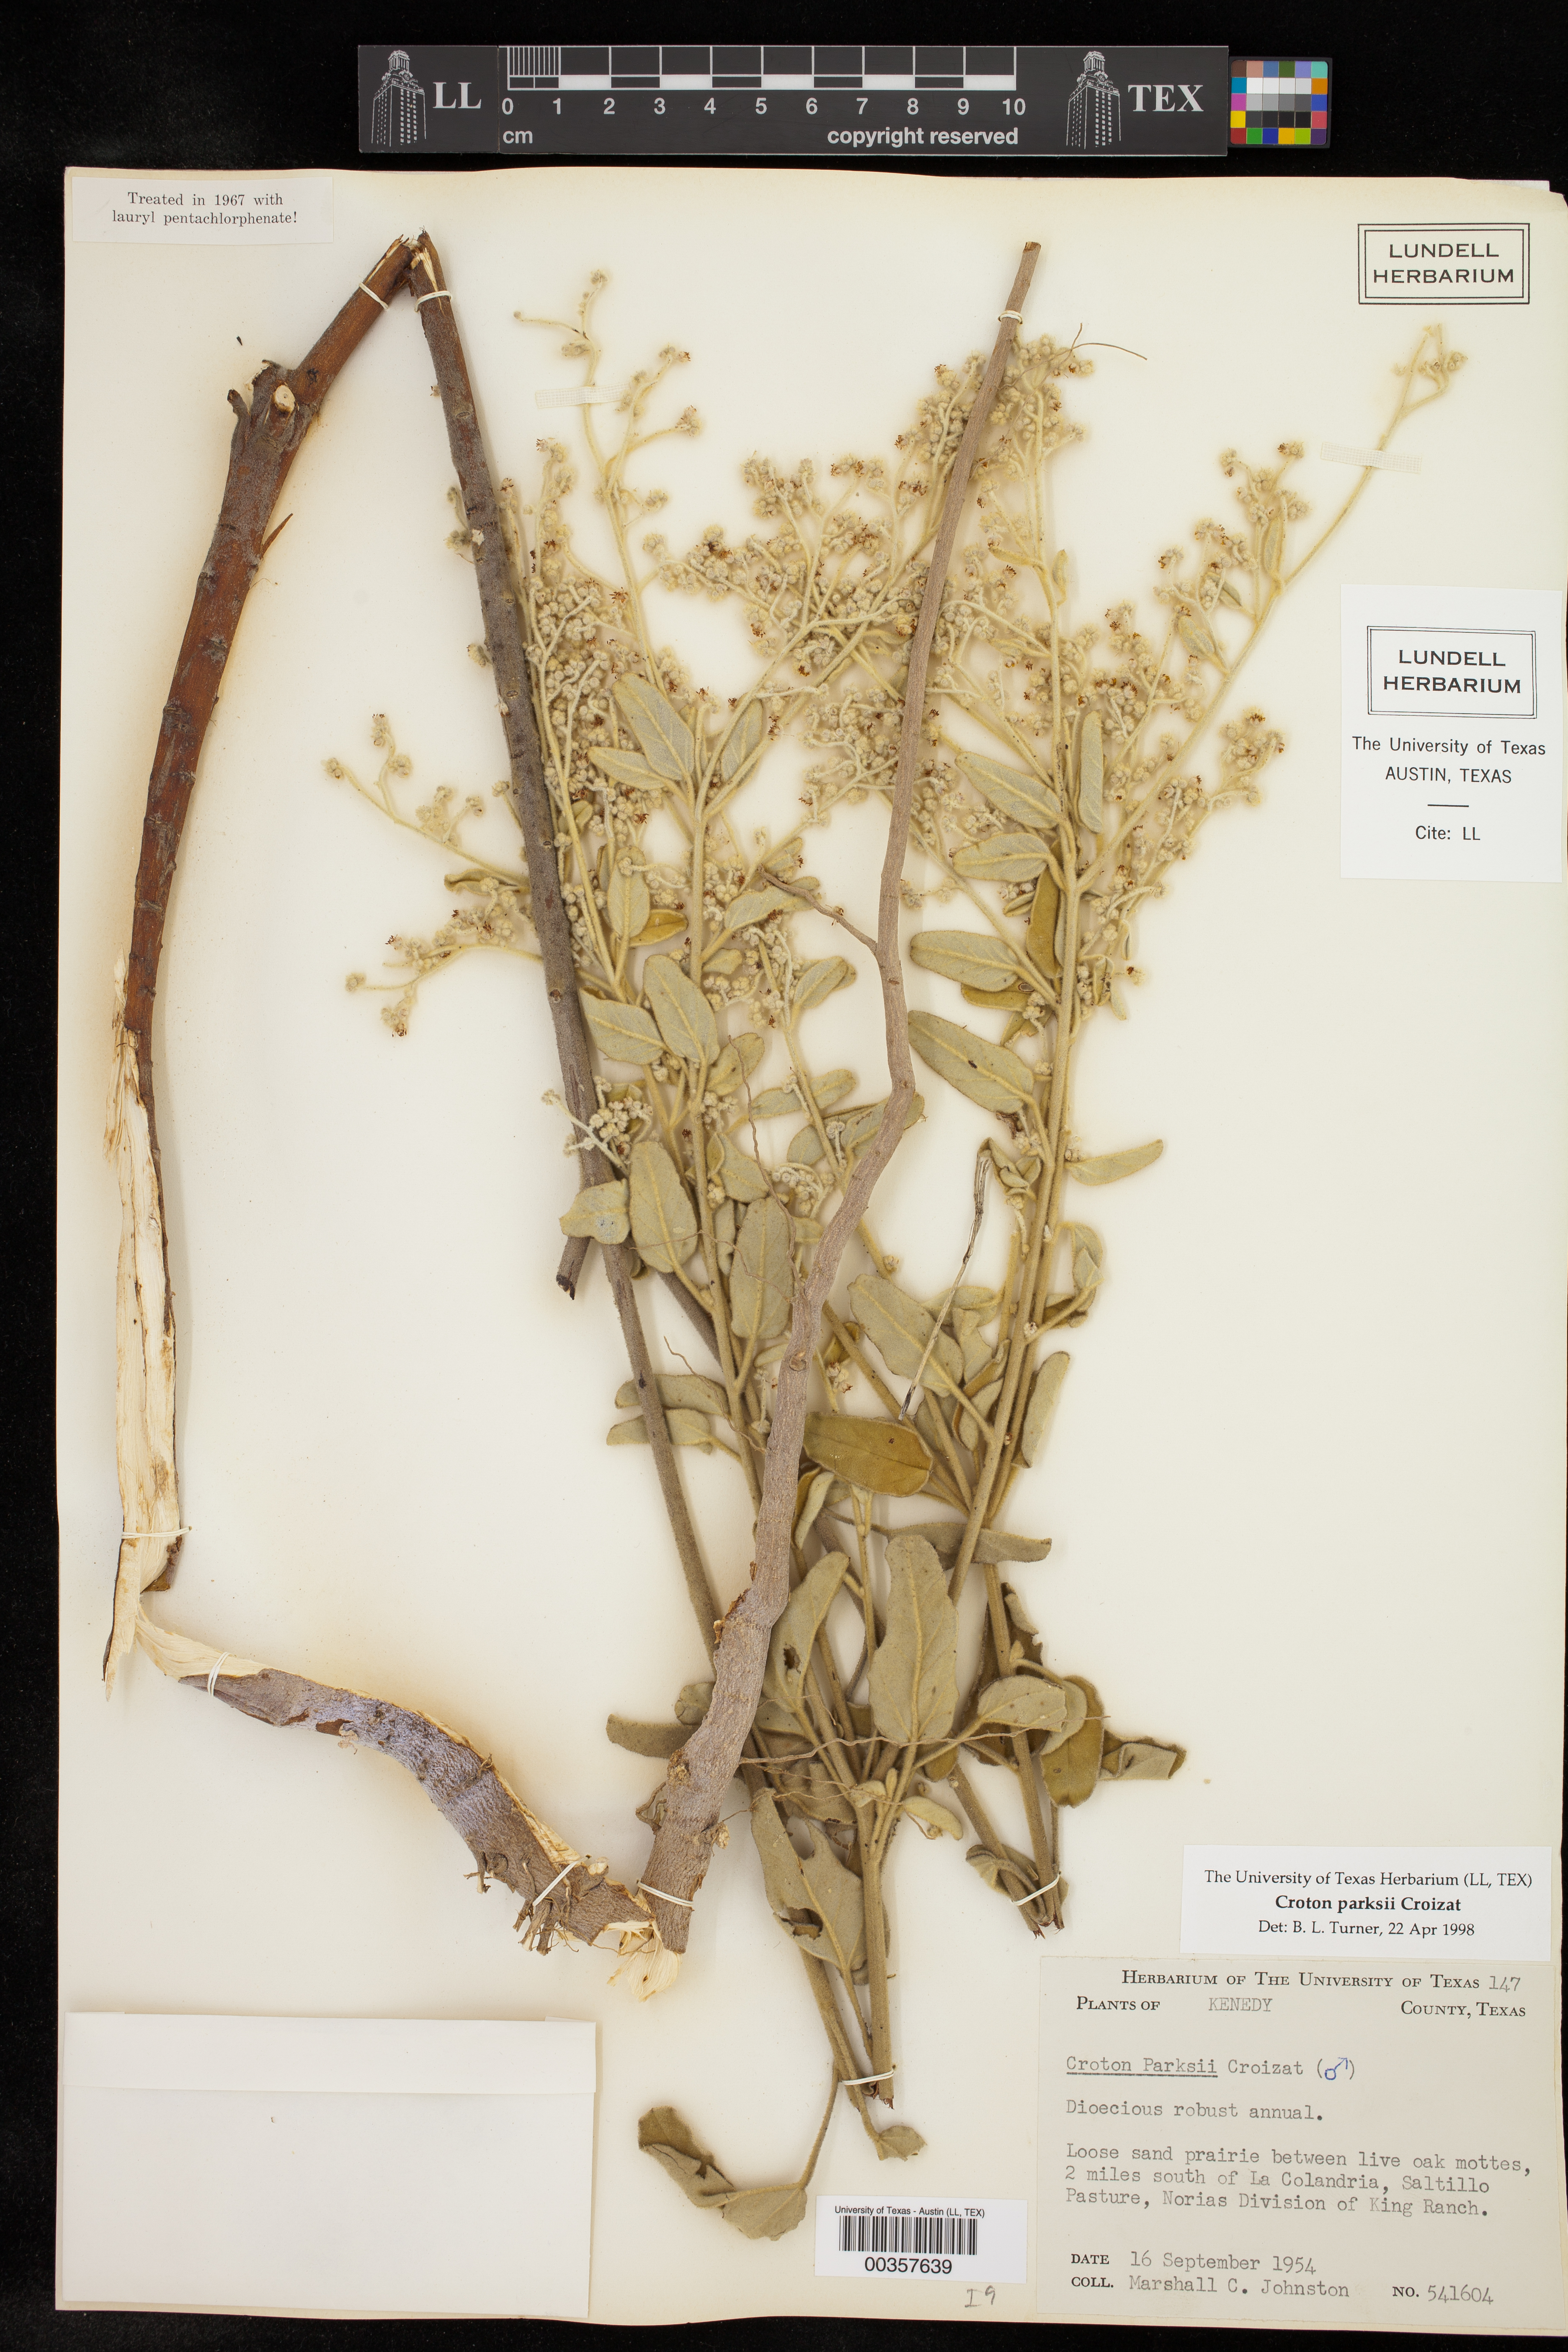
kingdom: Plantae
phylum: Tracheophyta
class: Magnoliopsida
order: Malpighiales
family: Euphorbiaceae
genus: Croton
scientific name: Croton parksii
